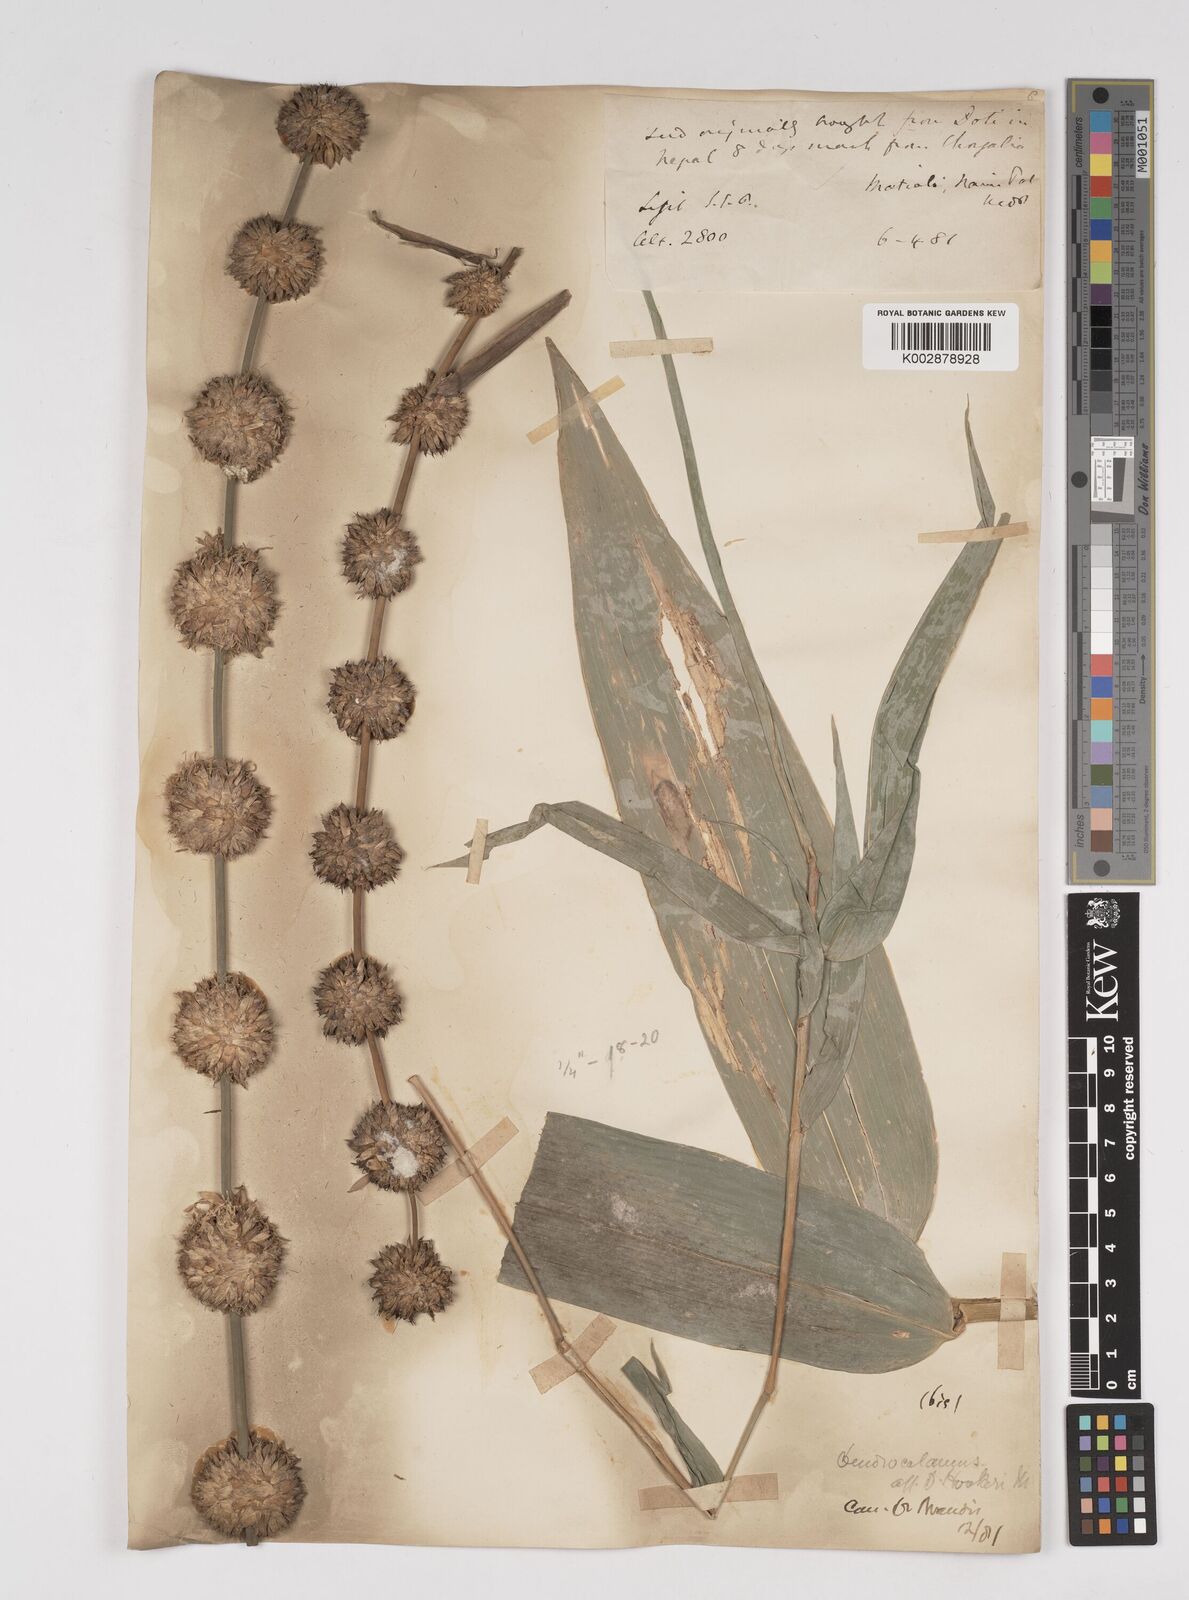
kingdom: Plantae
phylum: Tracheophyta
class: Liliopsida
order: Poales
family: Poaceae
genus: Dendrocalamus
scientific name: Dendrocalamus hookeri
